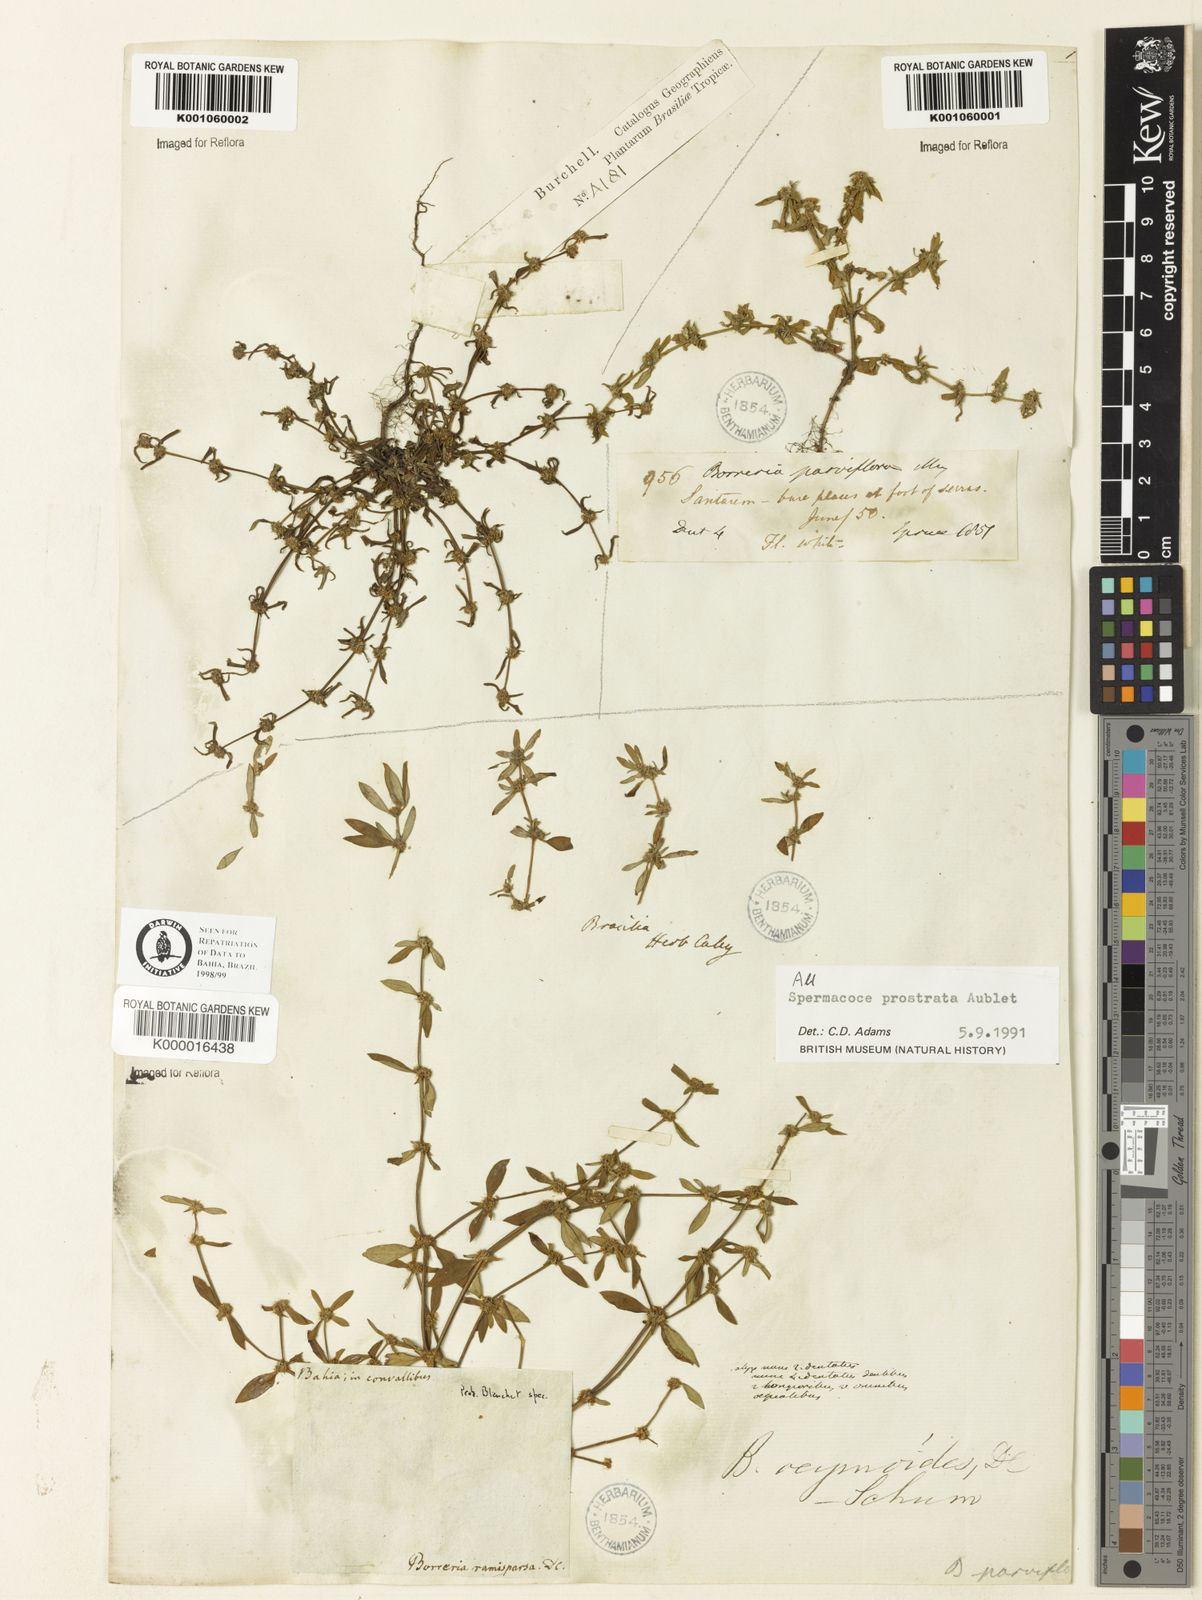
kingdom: Plantae
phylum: Tracheophyta
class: Magnoliopsida
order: Gentianales
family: Rubiaceae
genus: Spermacoce
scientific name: Spermacoce prostrata
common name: Prostrate false buttonweed
